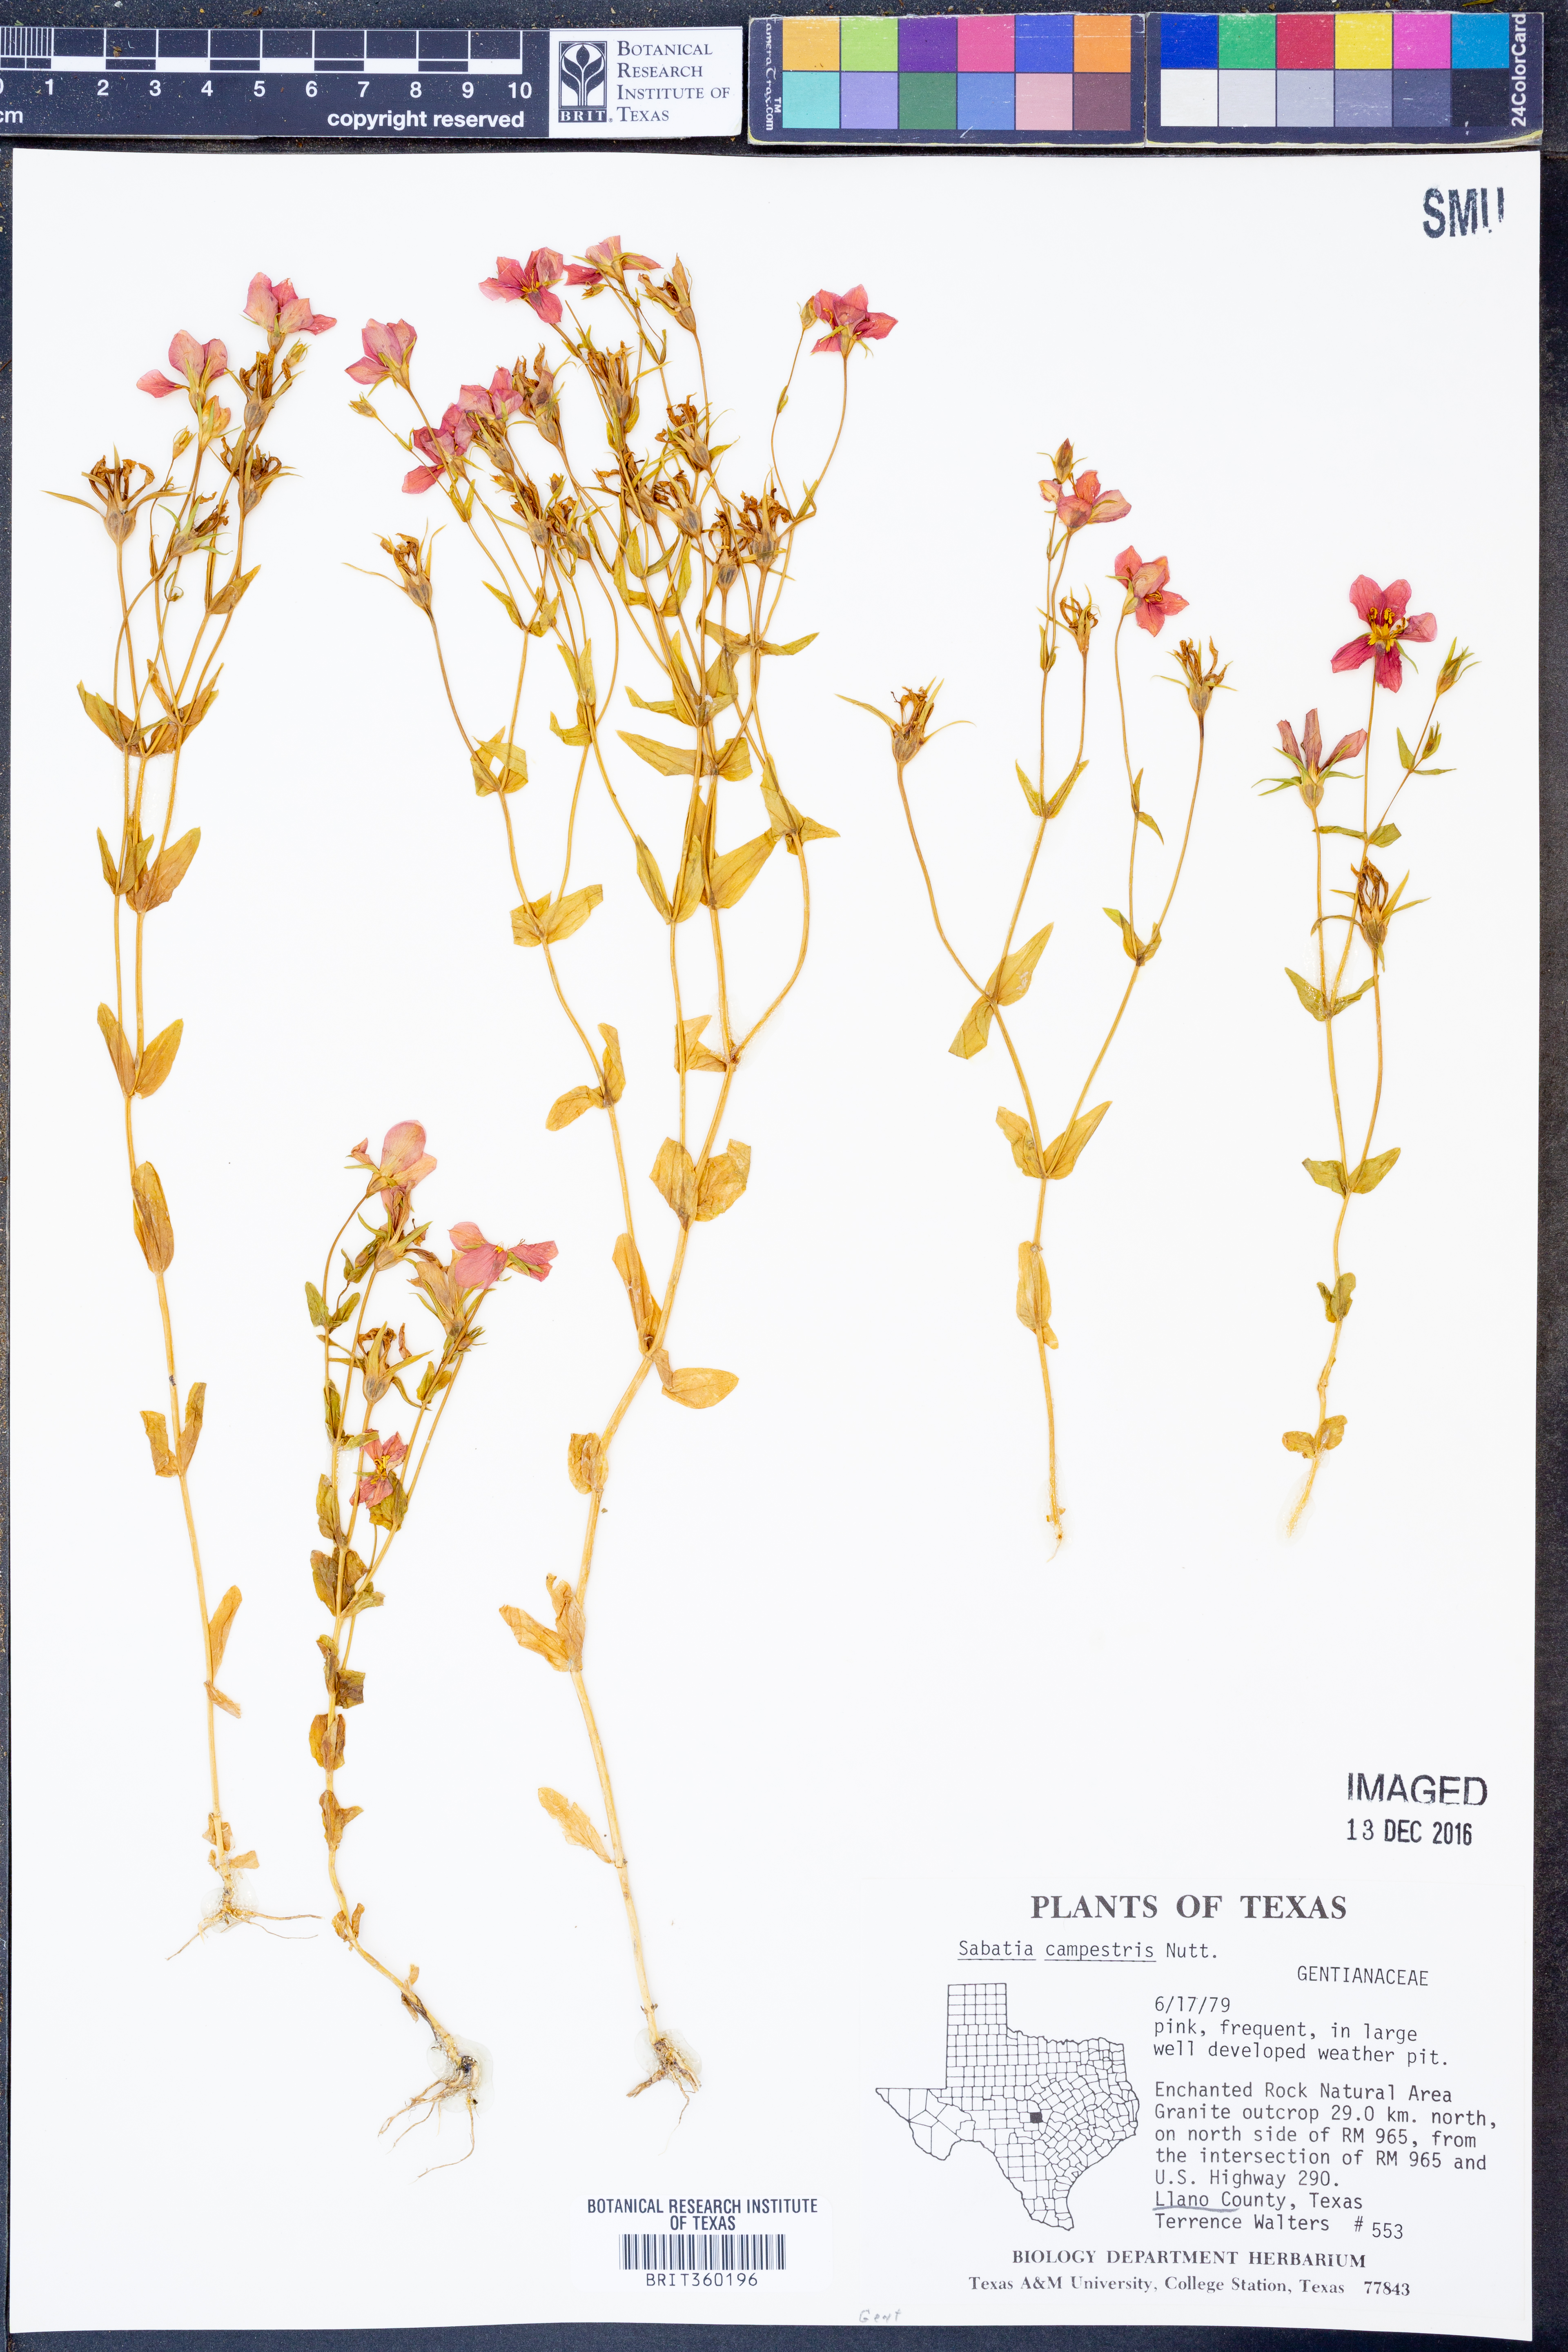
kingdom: Plantae
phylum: Tracheophyta
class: Magnoliopsida
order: Gentianales
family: Gentianaceae
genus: Sabatia
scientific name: Sabatia campestris
